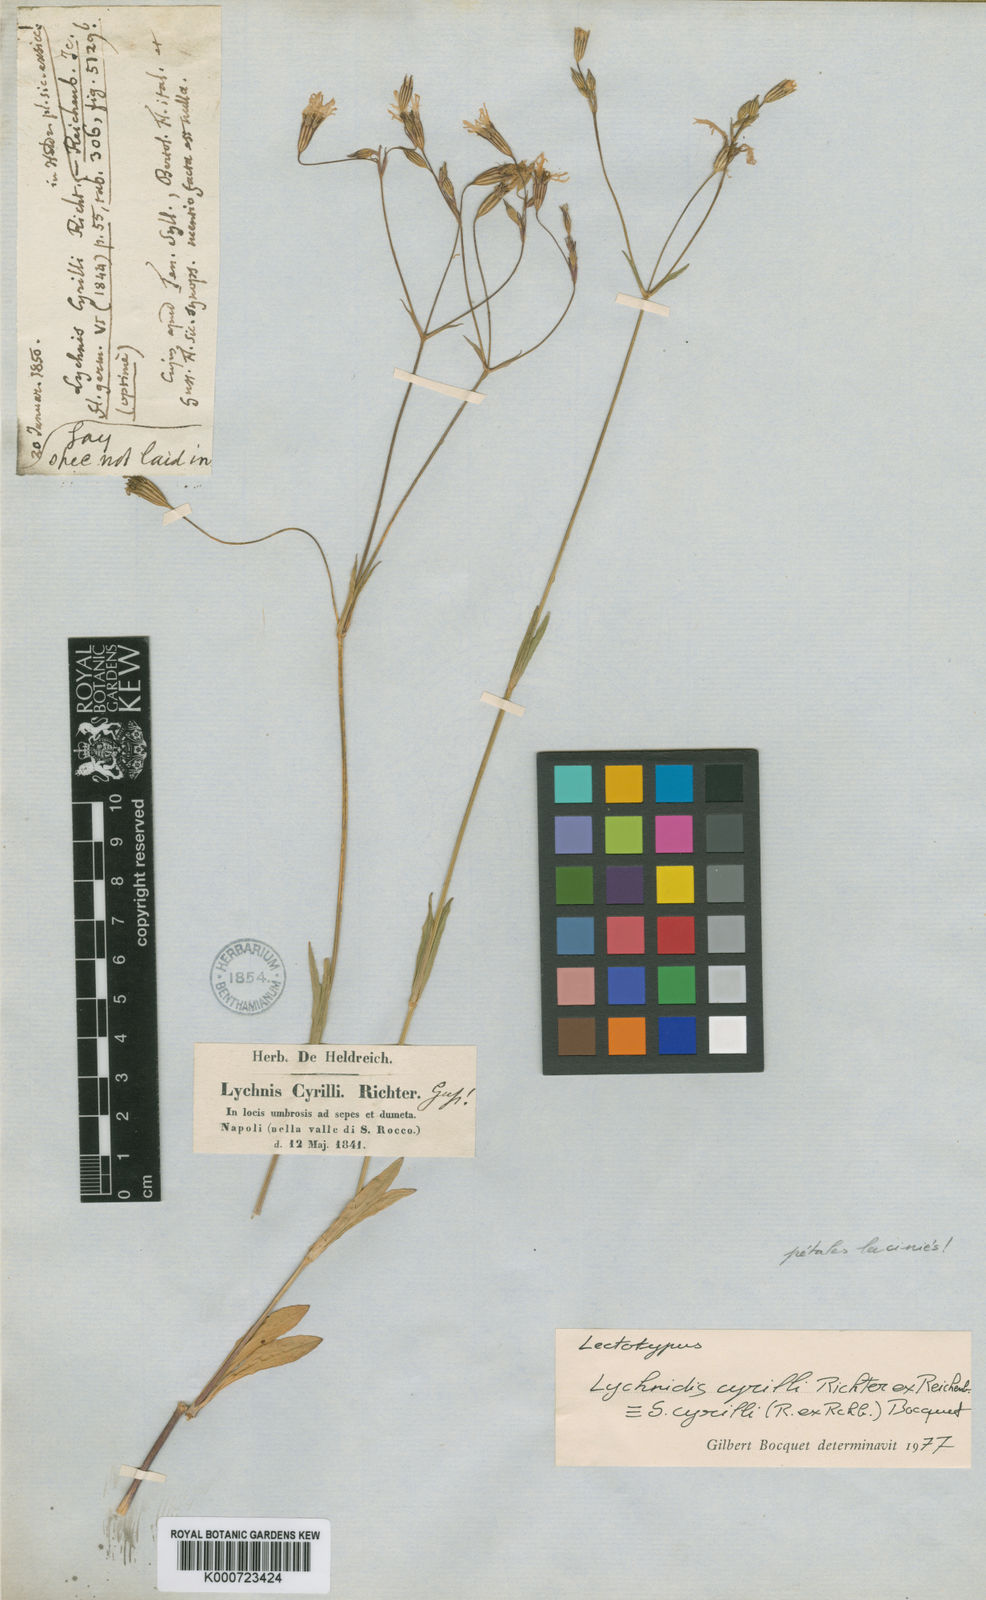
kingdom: Plantae
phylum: Tracheophyta
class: Magnoliopsida
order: Caryophyllales
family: Caryophyllaceae
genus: Silene
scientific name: Silene flos-cuculi
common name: Ragged-robin
